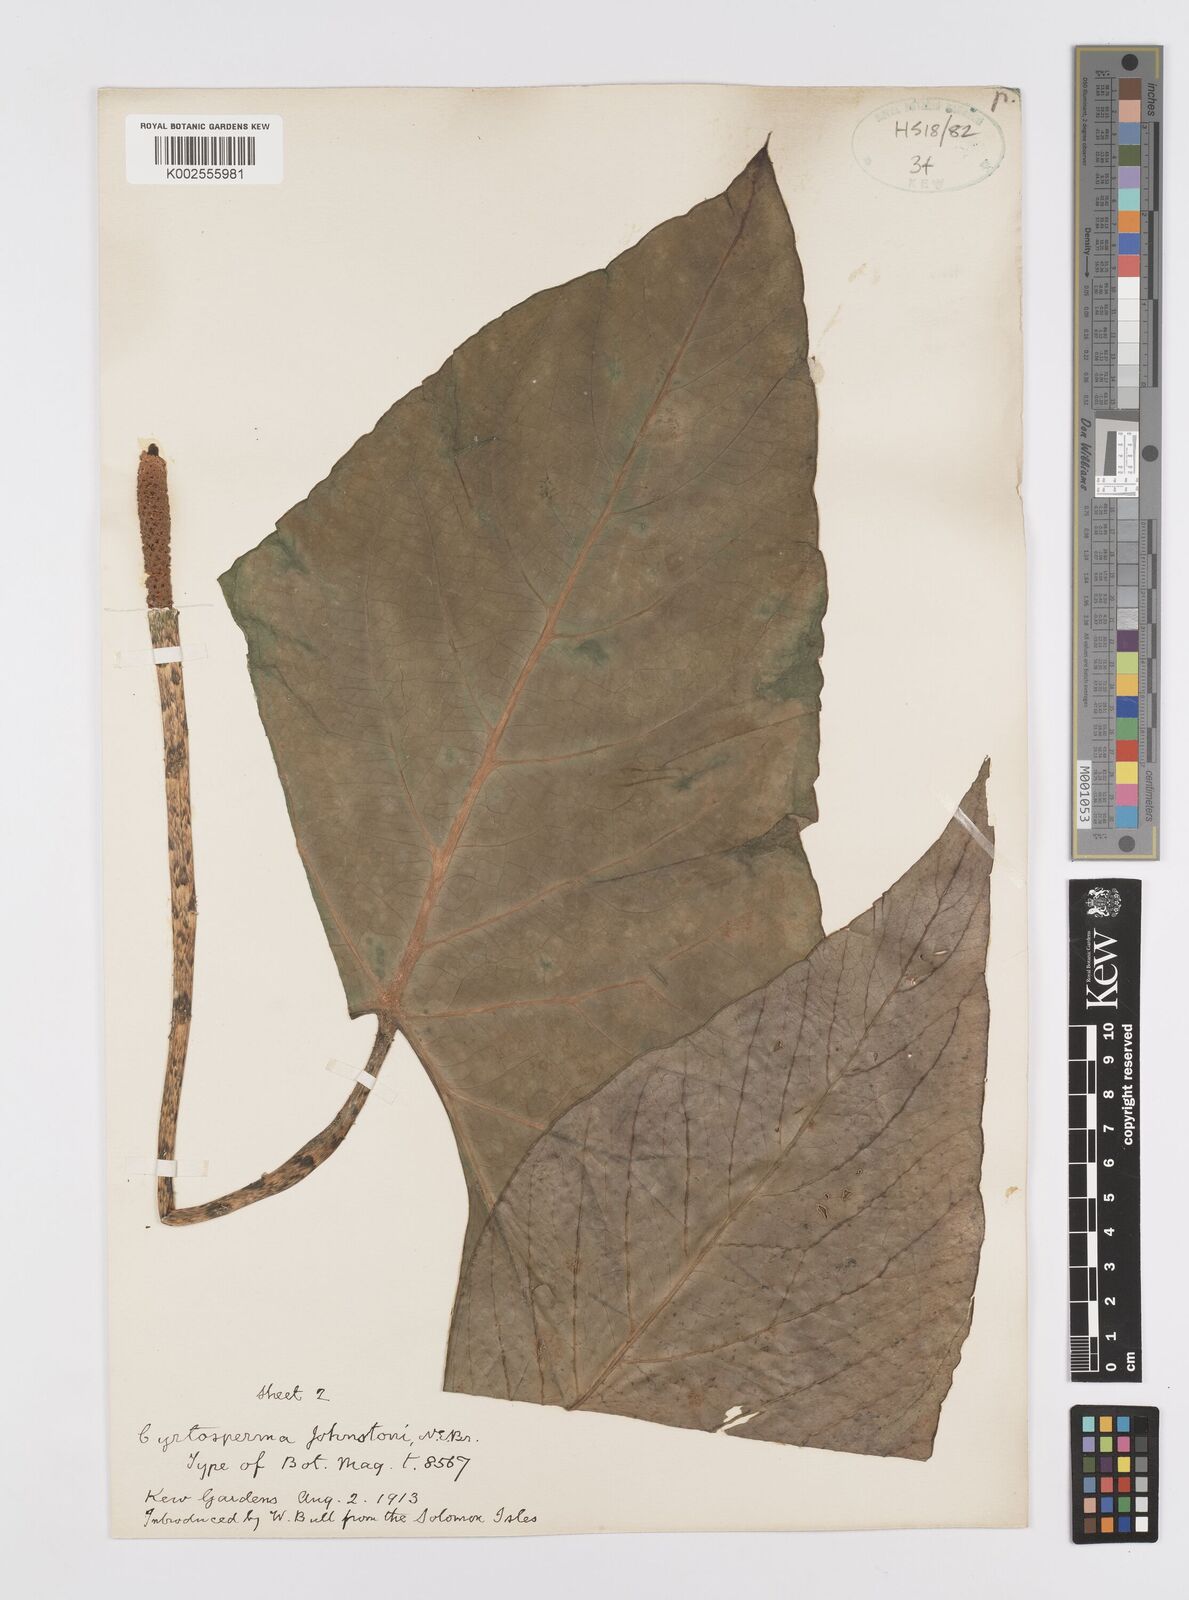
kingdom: Plantae
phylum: Tracheophyta
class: Liliopsida
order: Alismatales
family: Araceae
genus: Cyrtosperma
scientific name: Cyrtosperma johnstonii
